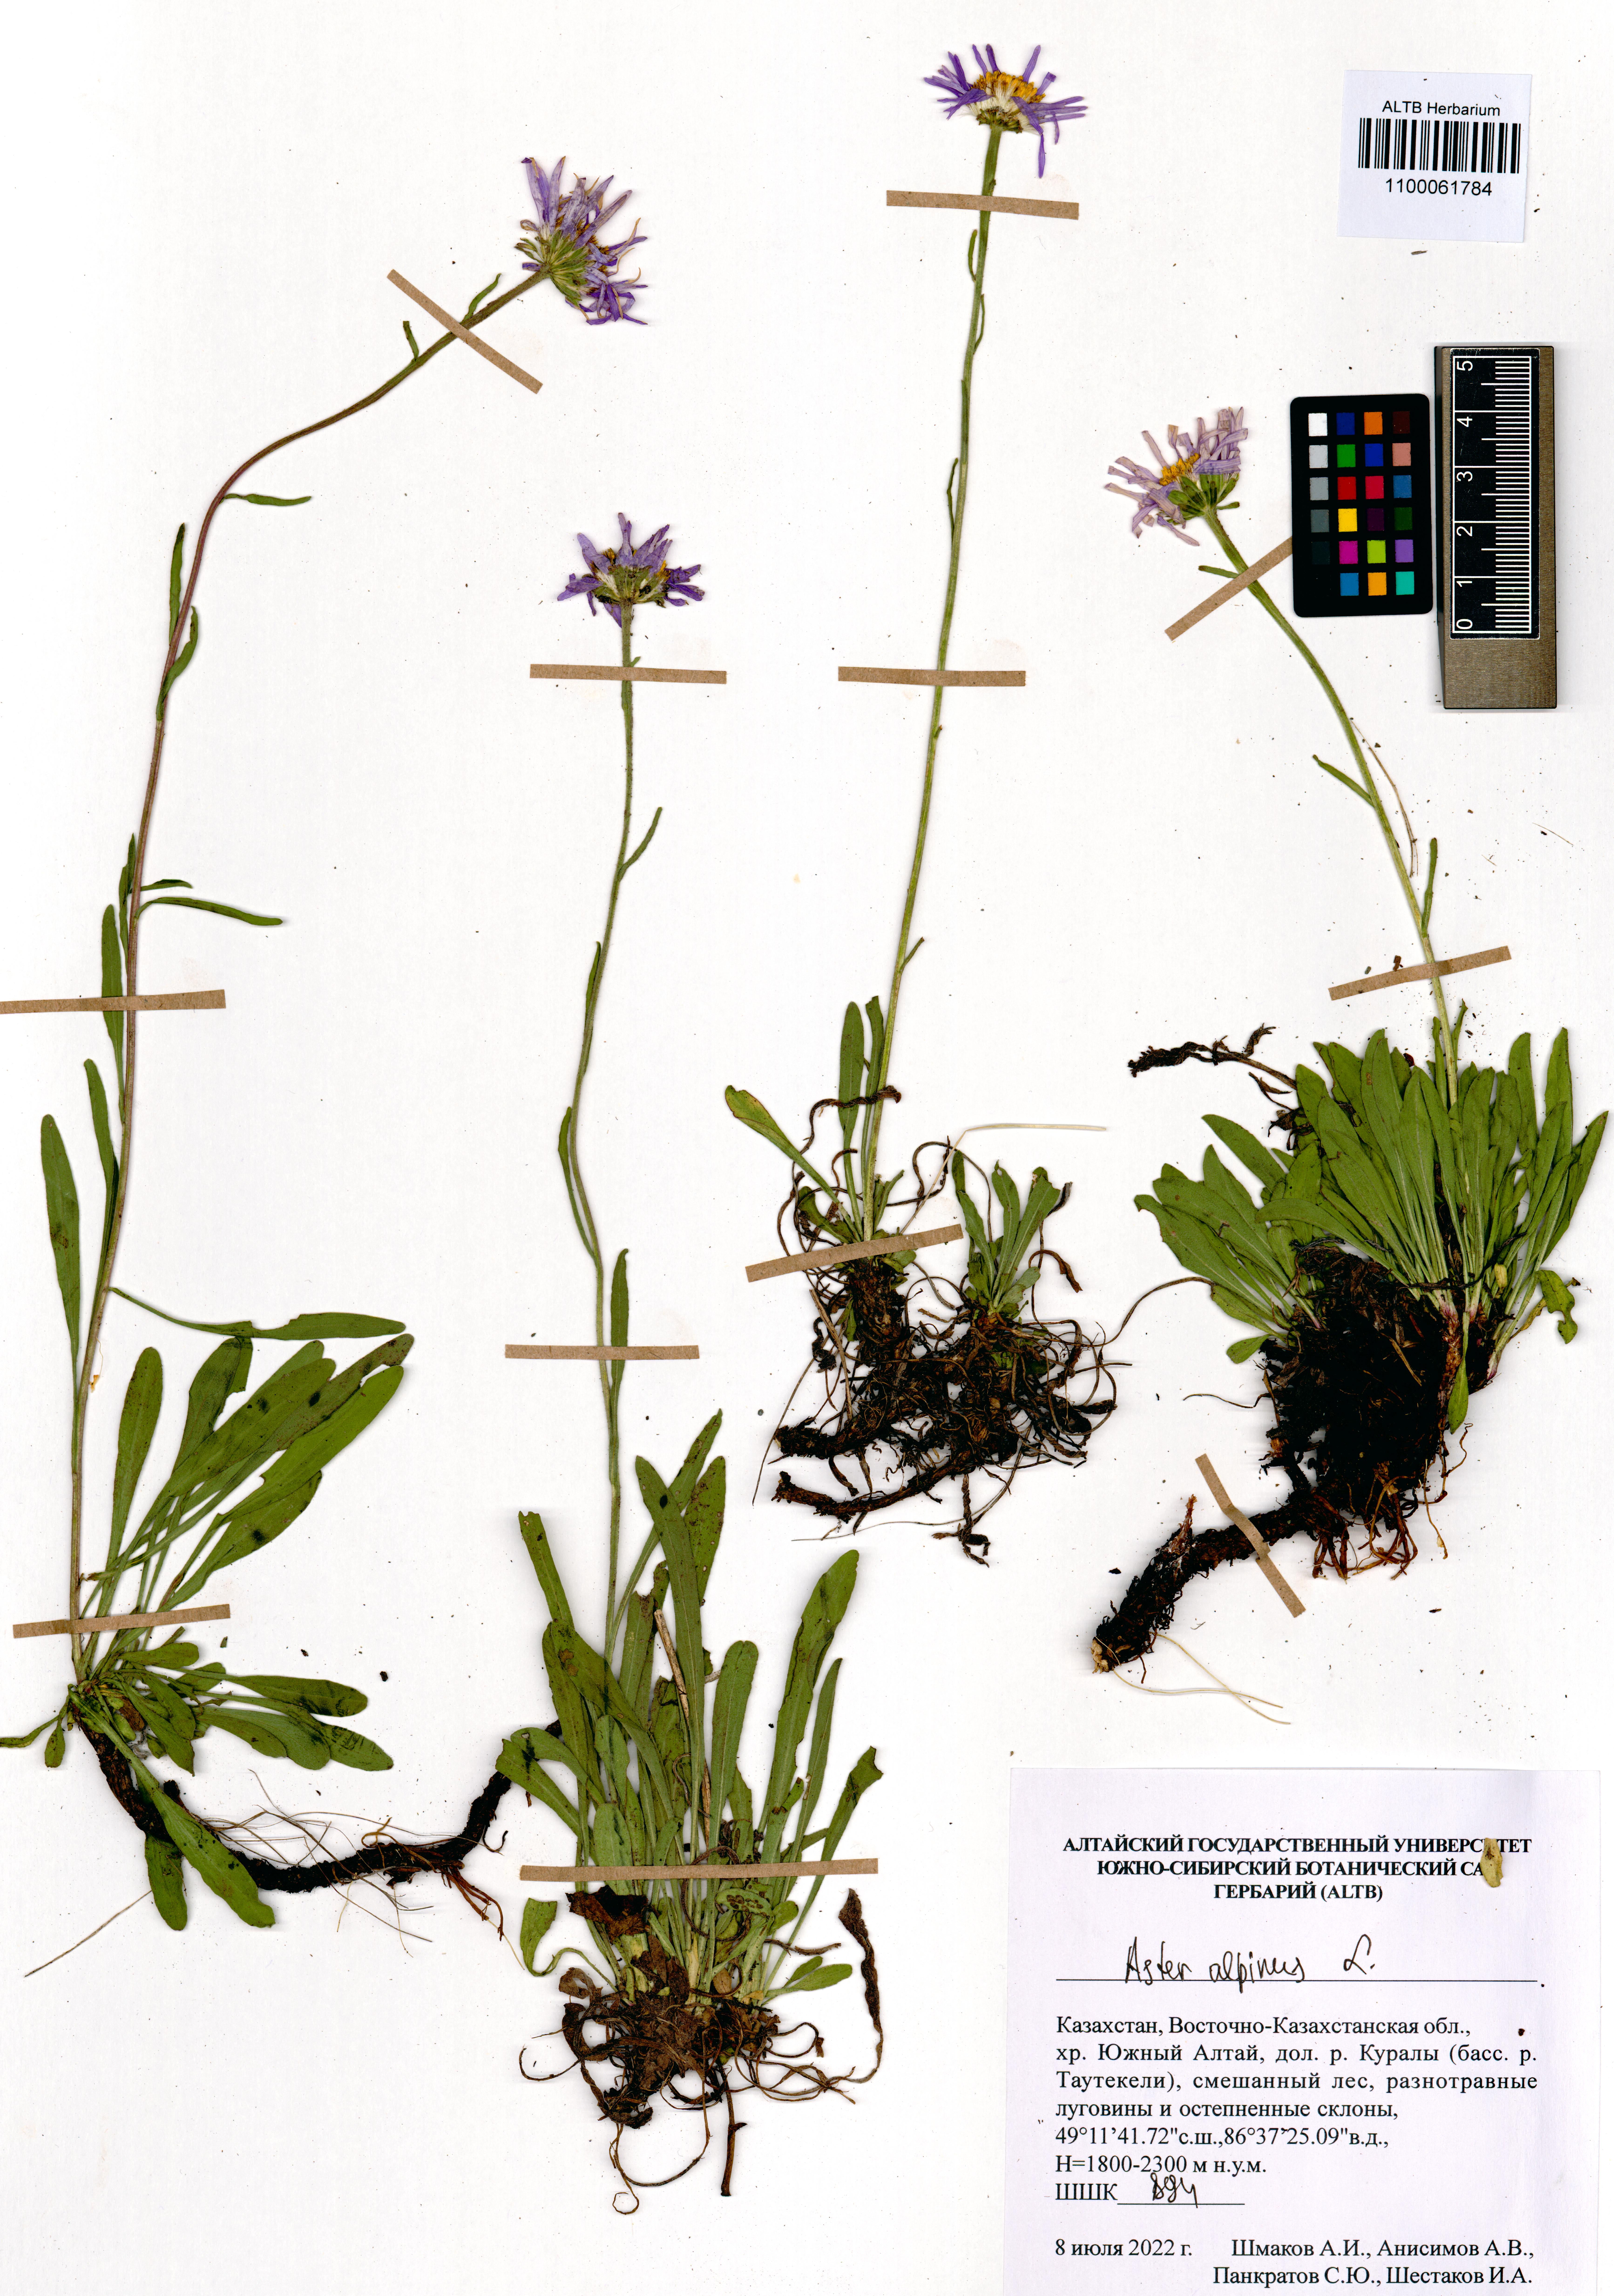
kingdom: Plantae
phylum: Tracheophyta
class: Magnoliopsida
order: Asterales
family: Asteraceae
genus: Aster
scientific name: Aster alpinus
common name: Alpine aster
